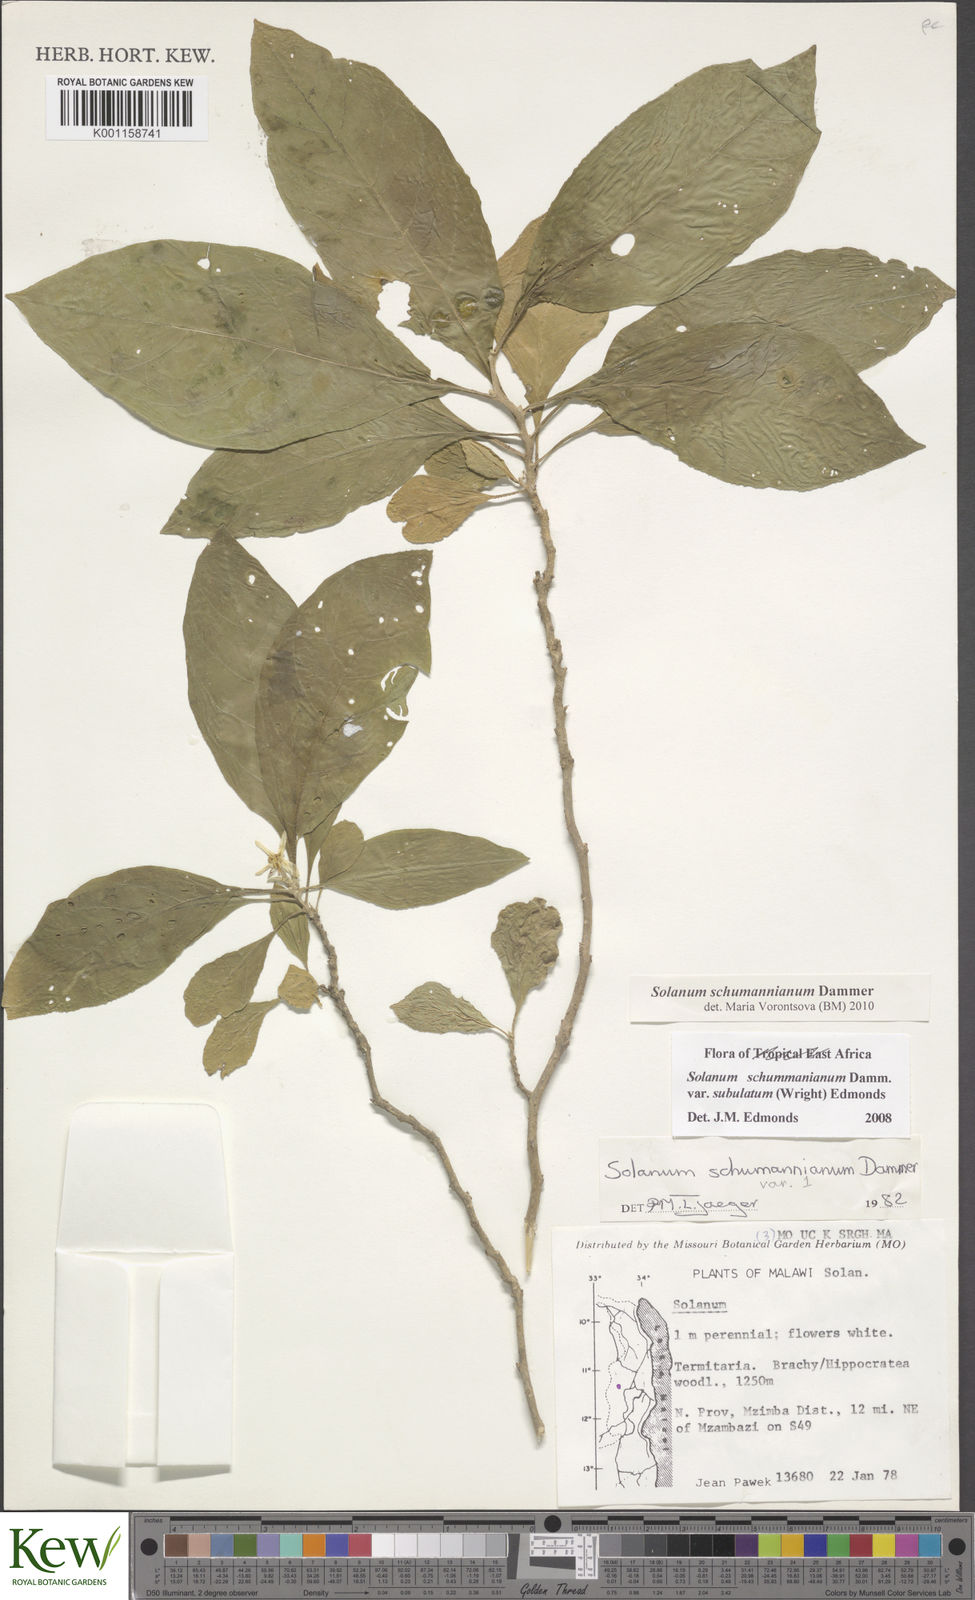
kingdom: Plantae
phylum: Tracheophyta
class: Magnoliopsida
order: Solanales
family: Solanaceae
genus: Solanum
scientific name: Solanum schumannianum
